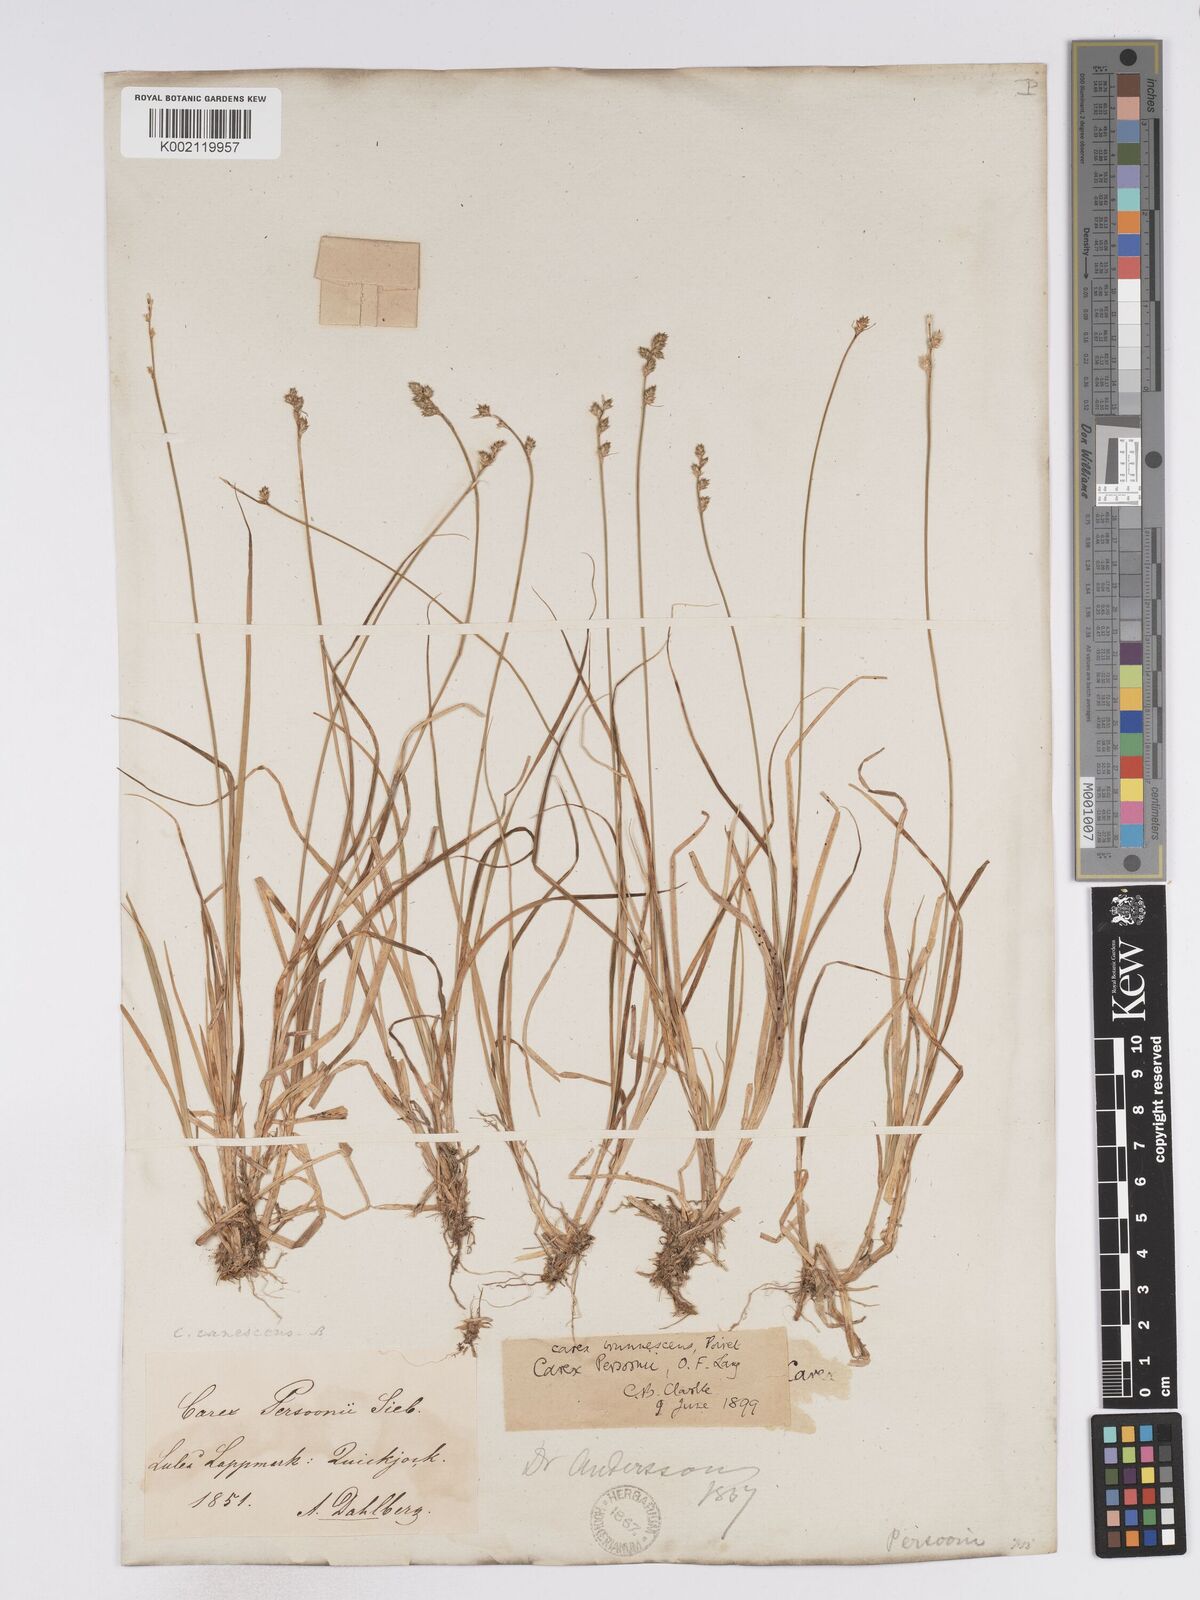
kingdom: Plantae
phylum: Tracheophyta
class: Liliopsida
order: Poales
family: Cyperaceae
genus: Carex
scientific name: Carex canescens
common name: White sedge
